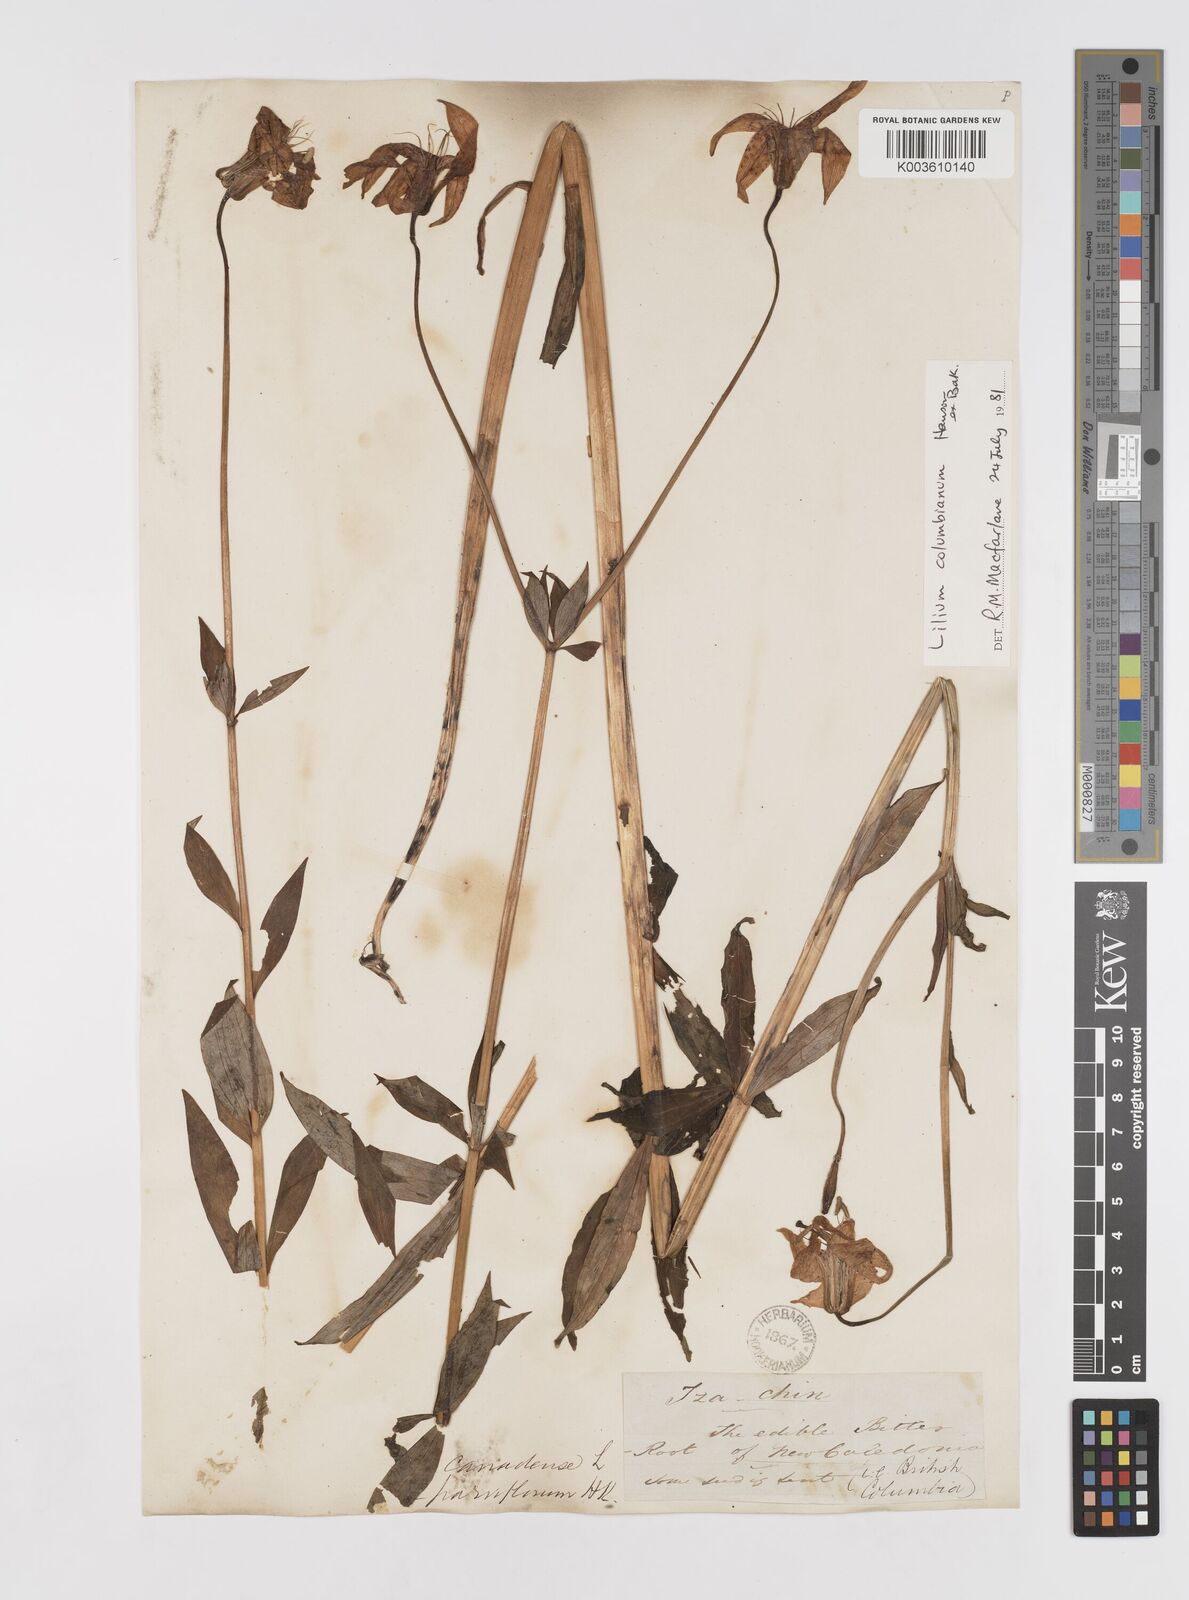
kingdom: Plantae
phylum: Tracheophyta
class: Liliopsida
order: Liliales
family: Liliaceae
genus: Lilium
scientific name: Lilium columbianum
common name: Columbia lily
